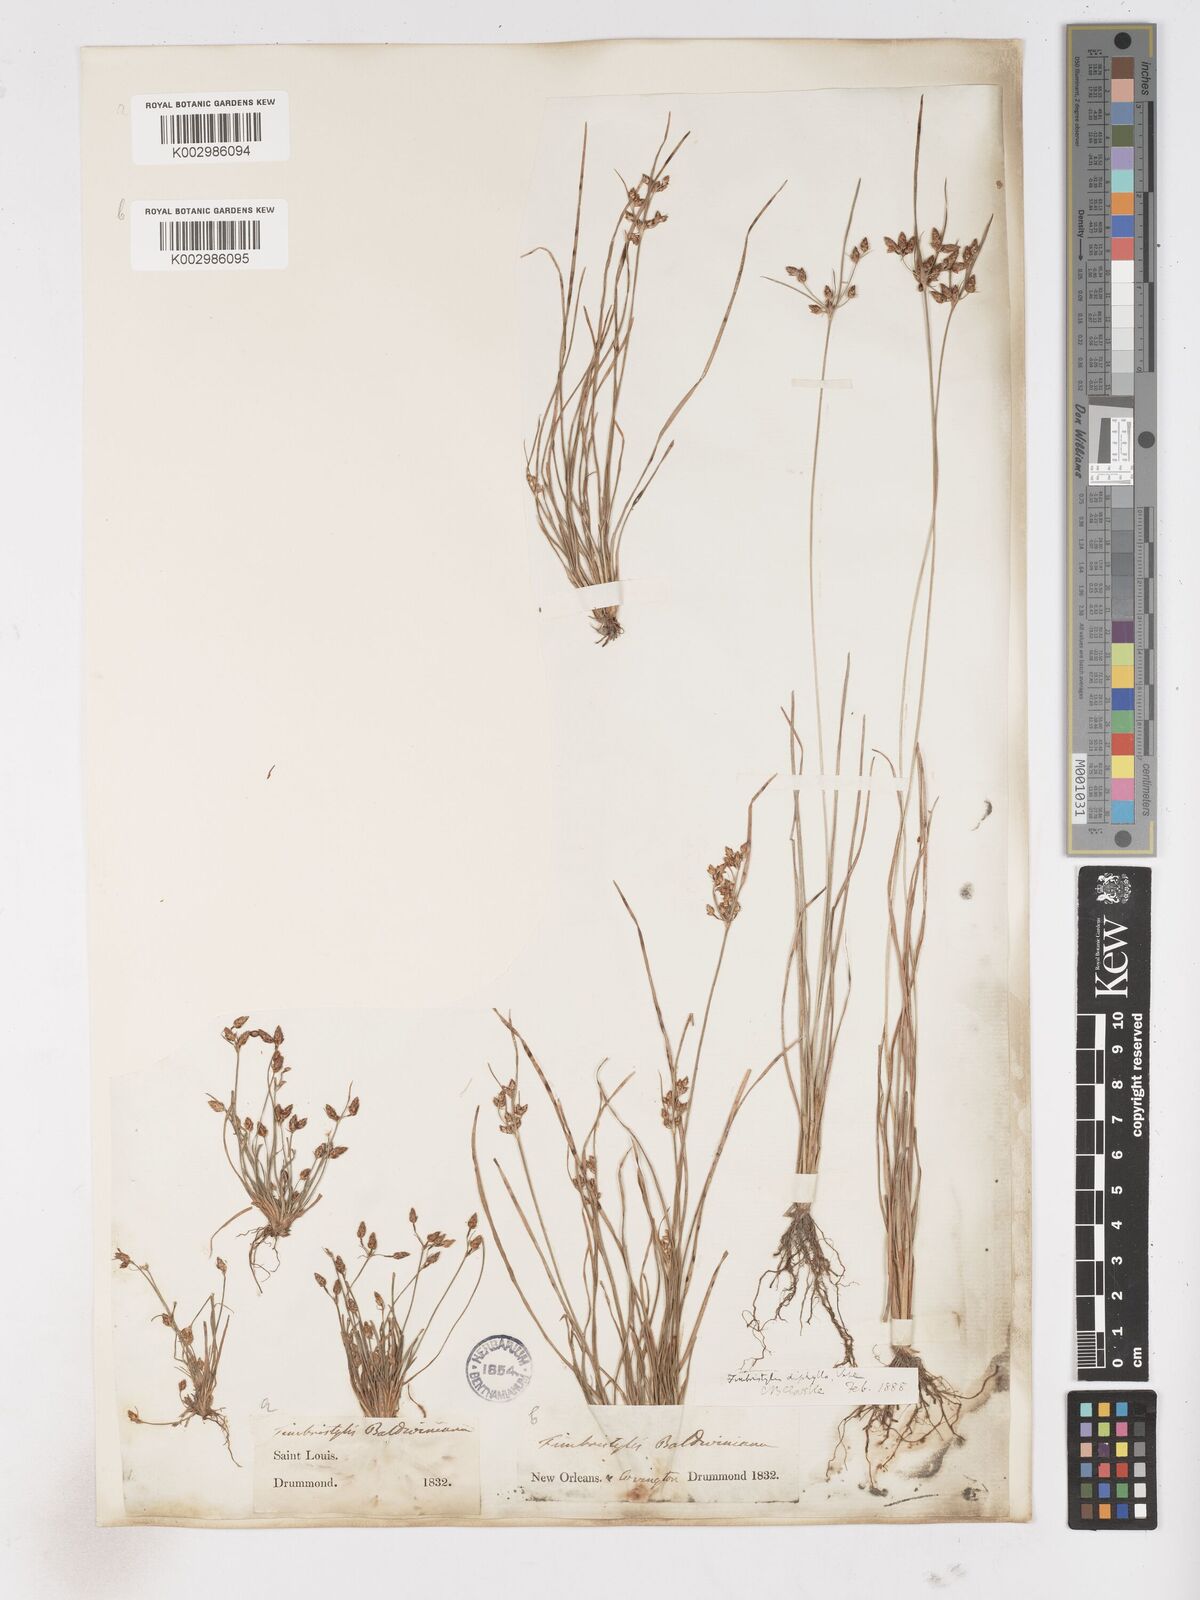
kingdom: Plantae
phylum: Tracheophyta
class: Liliopsida
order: Poales
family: Cyperaceae
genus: Fimbristylis
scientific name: Fimbristylis dichotoma
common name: Forked fimbry
